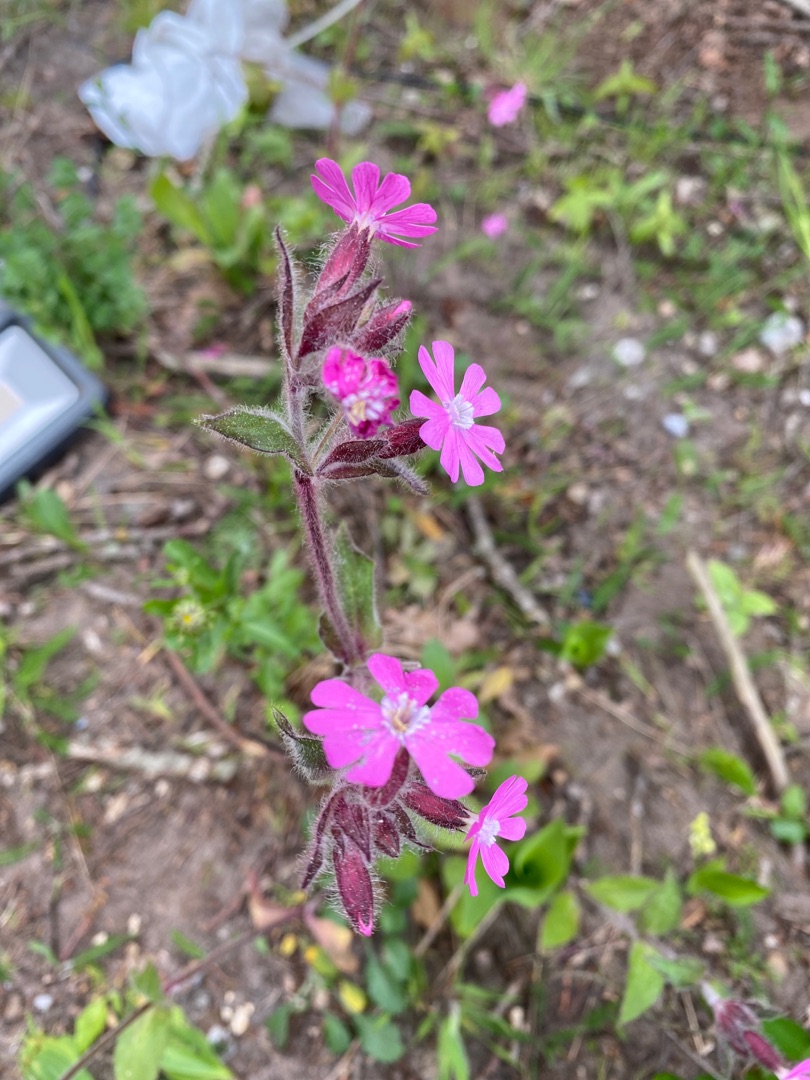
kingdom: Plantae
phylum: Tracheophyta
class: Magnoliopsida
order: Caryophyllales
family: Caryophyllaceae
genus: Silene
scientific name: Silene dioica
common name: Dagpragtstjerne
